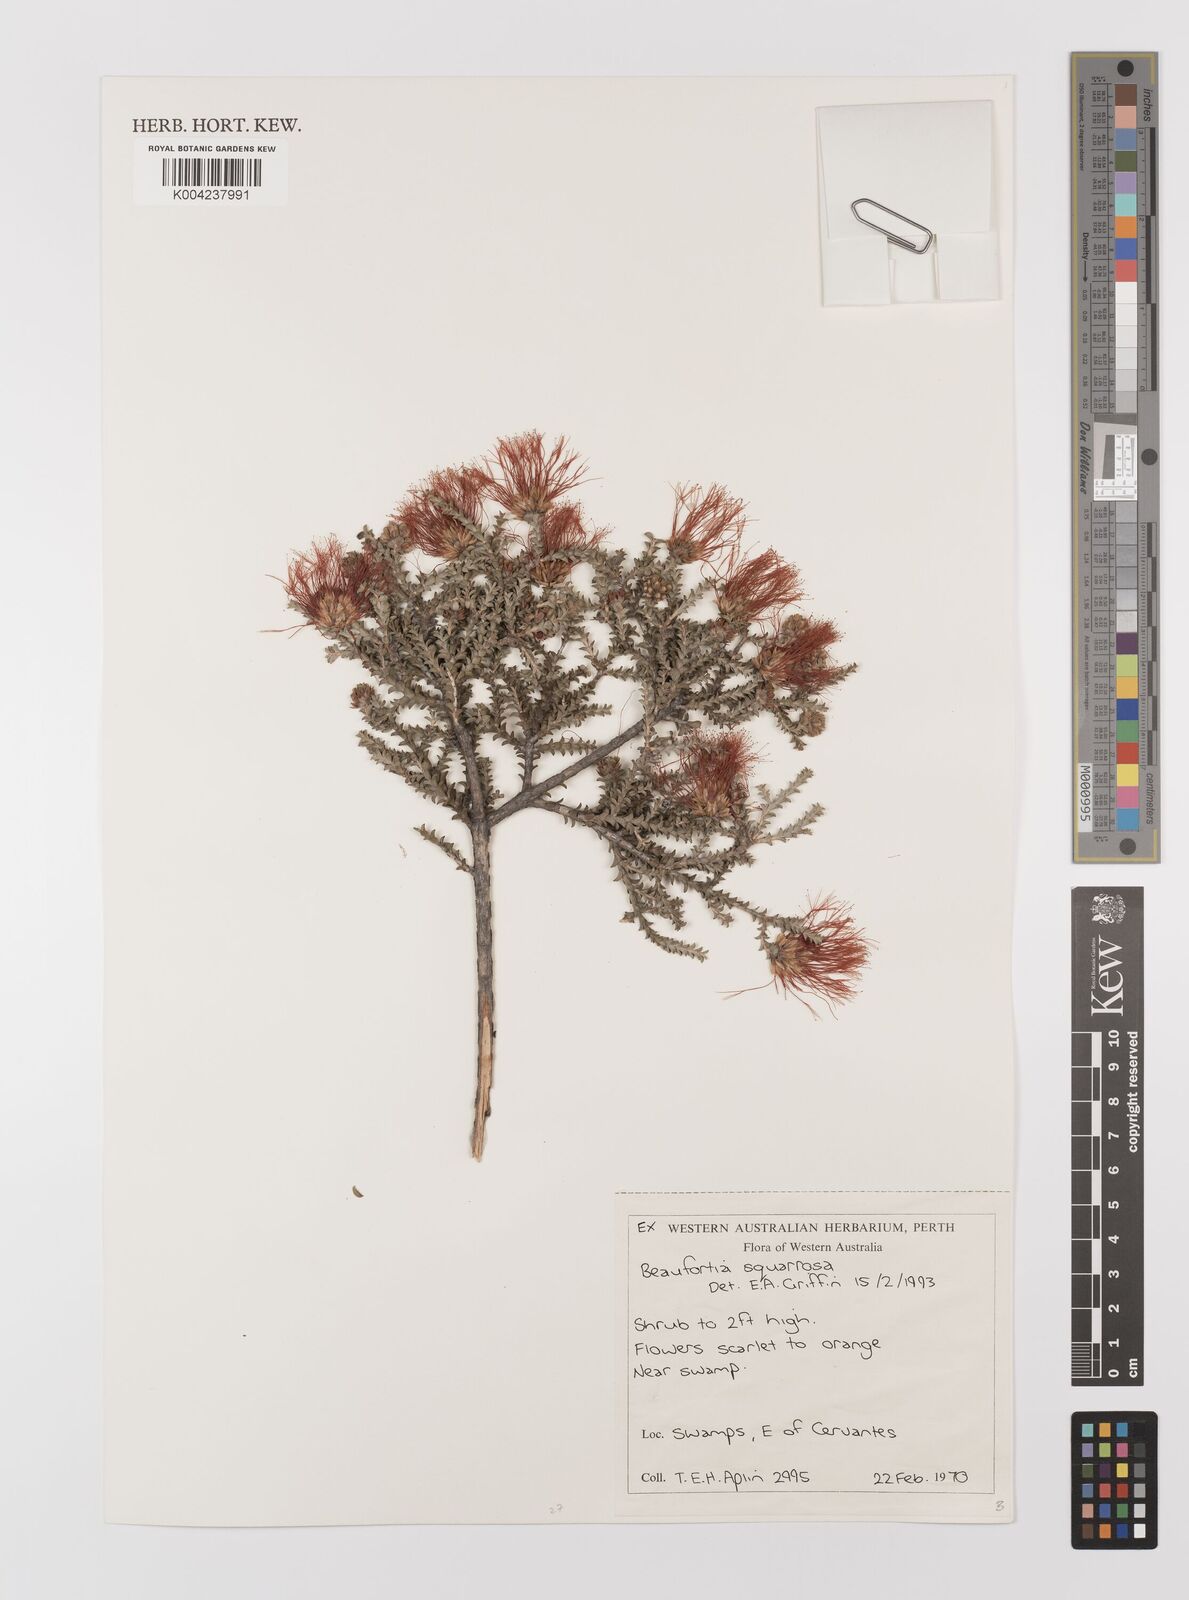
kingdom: Plantae
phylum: Tracheophyta
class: Magnoliopsida
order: Myrtales
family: Myrtaceae
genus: Melaleuca
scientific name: Melaleuca pulcherrima
